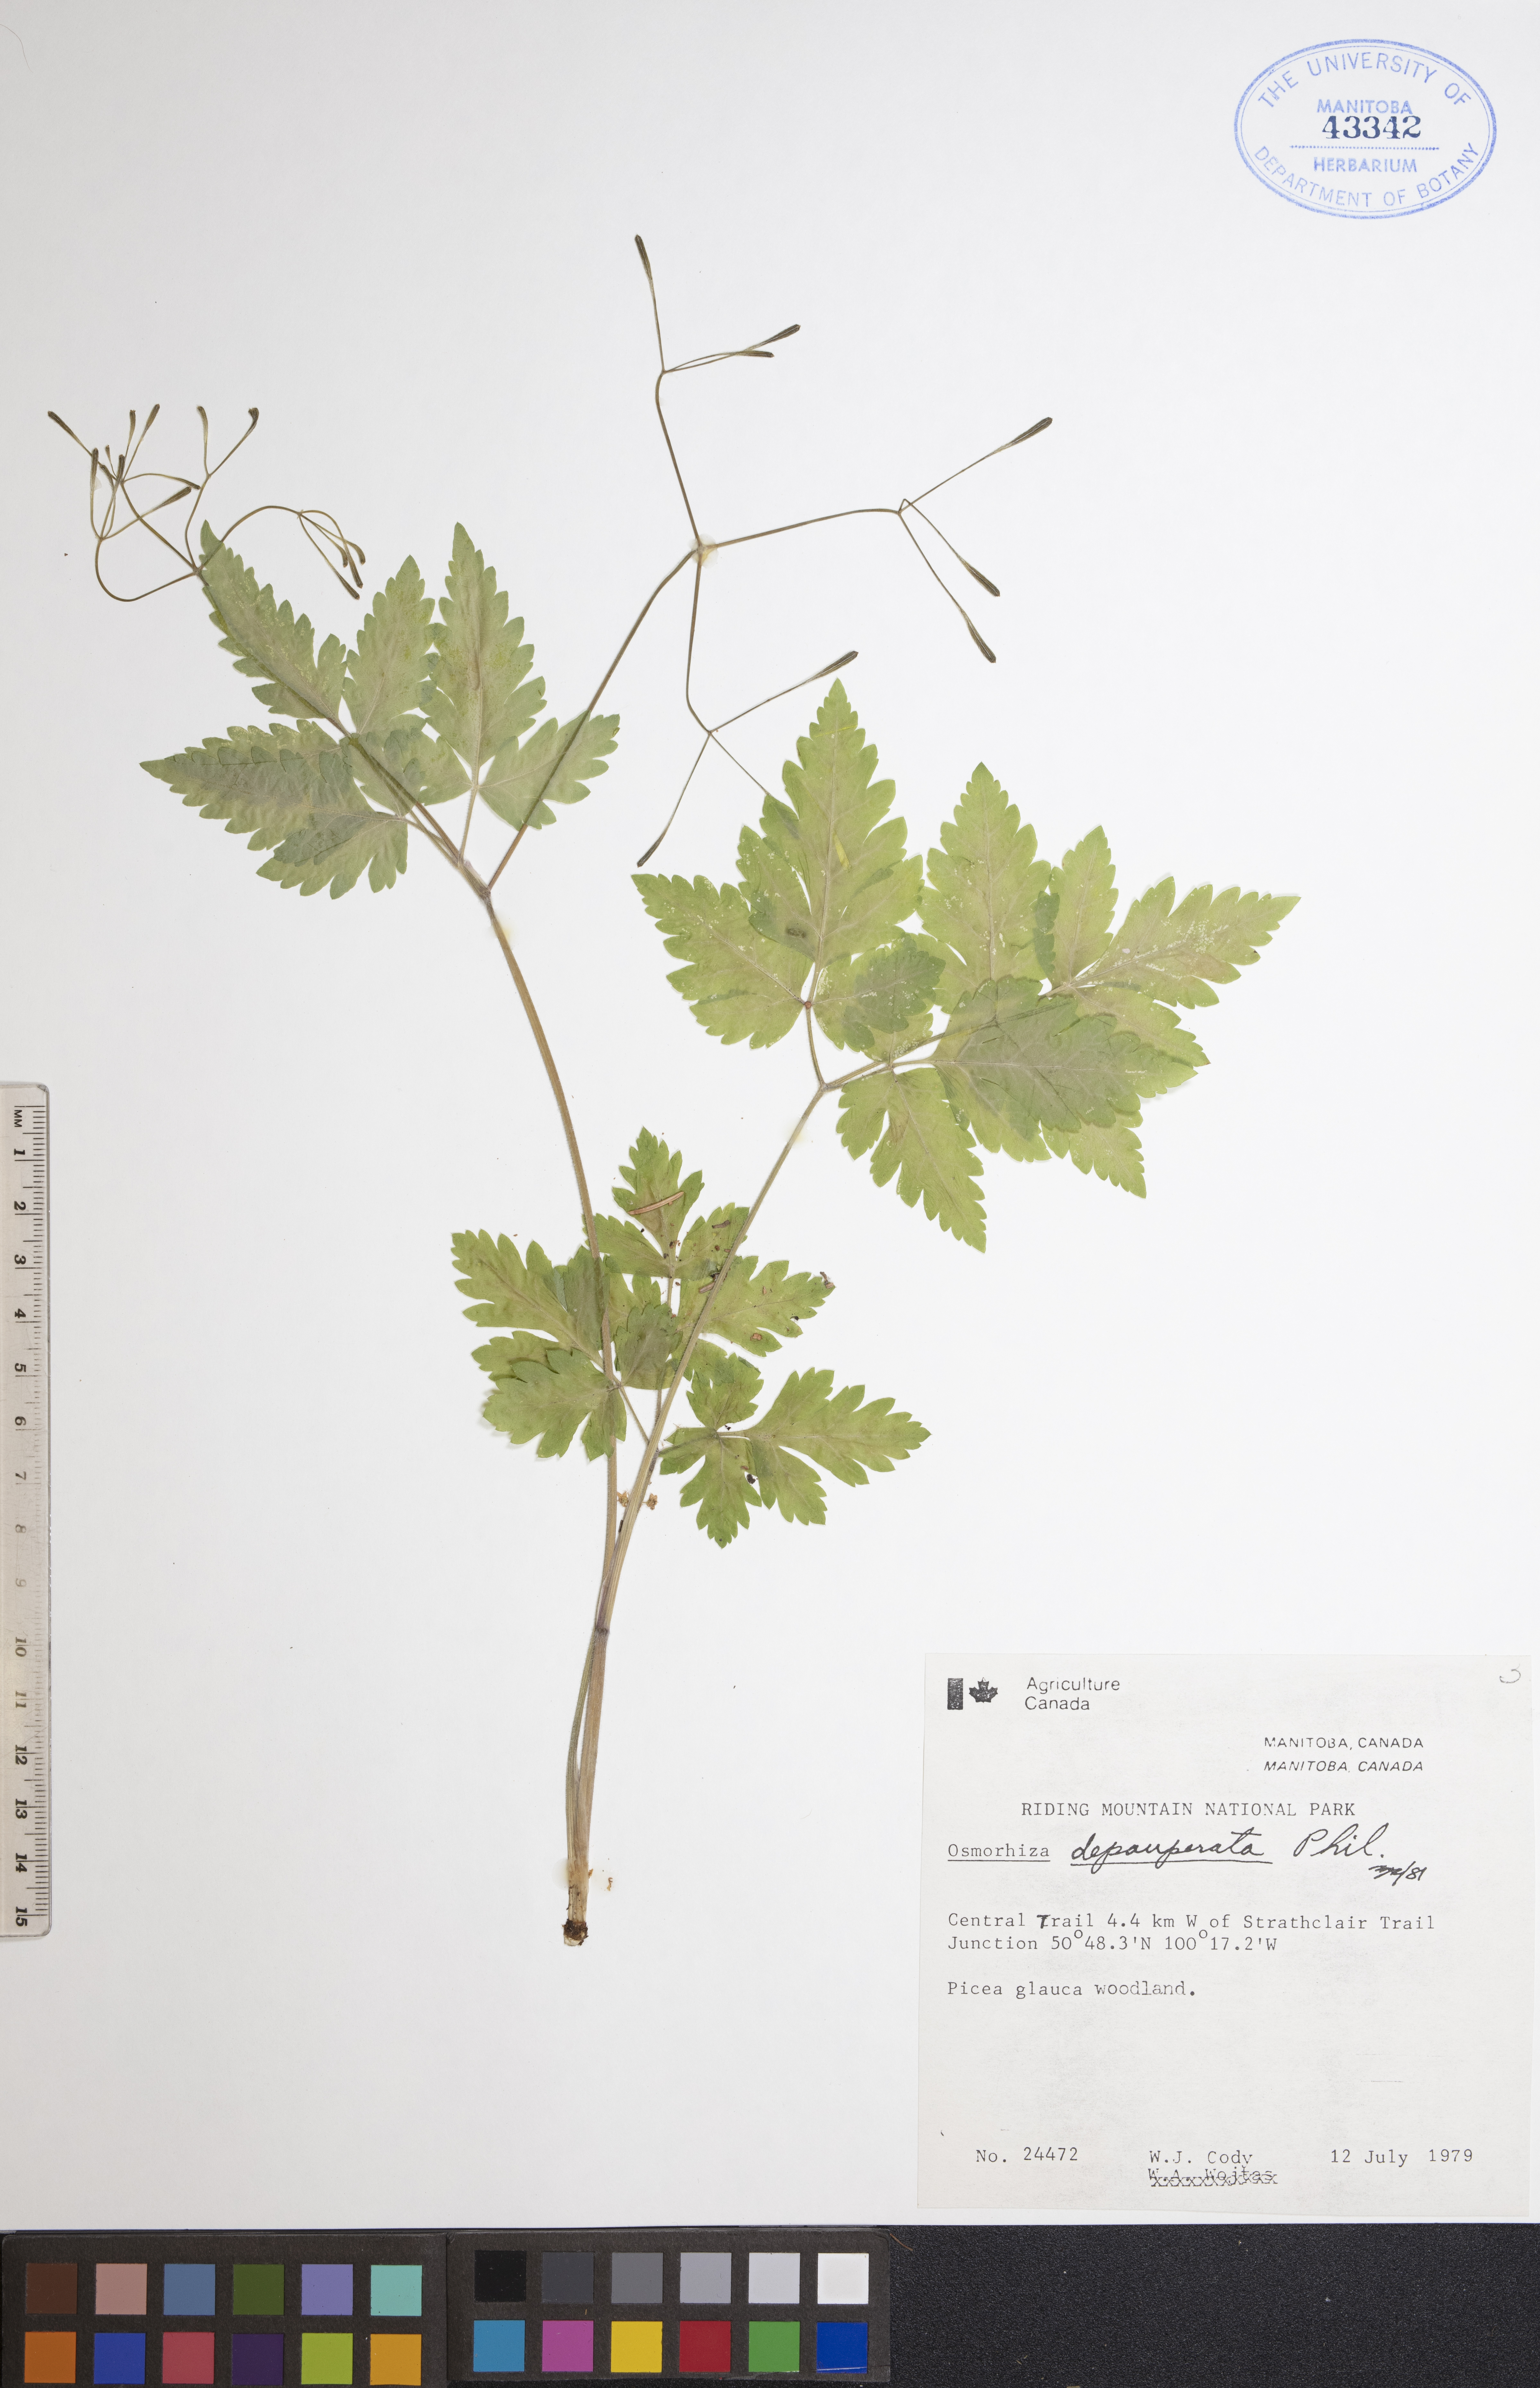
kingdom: Plantae
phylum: Tracheophyta
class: Magnoliopsida
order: Apiales
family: Apiaceae
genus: Osmorhiza
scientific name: Osmorhiza depauperata
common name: Blunt sweet cicely
